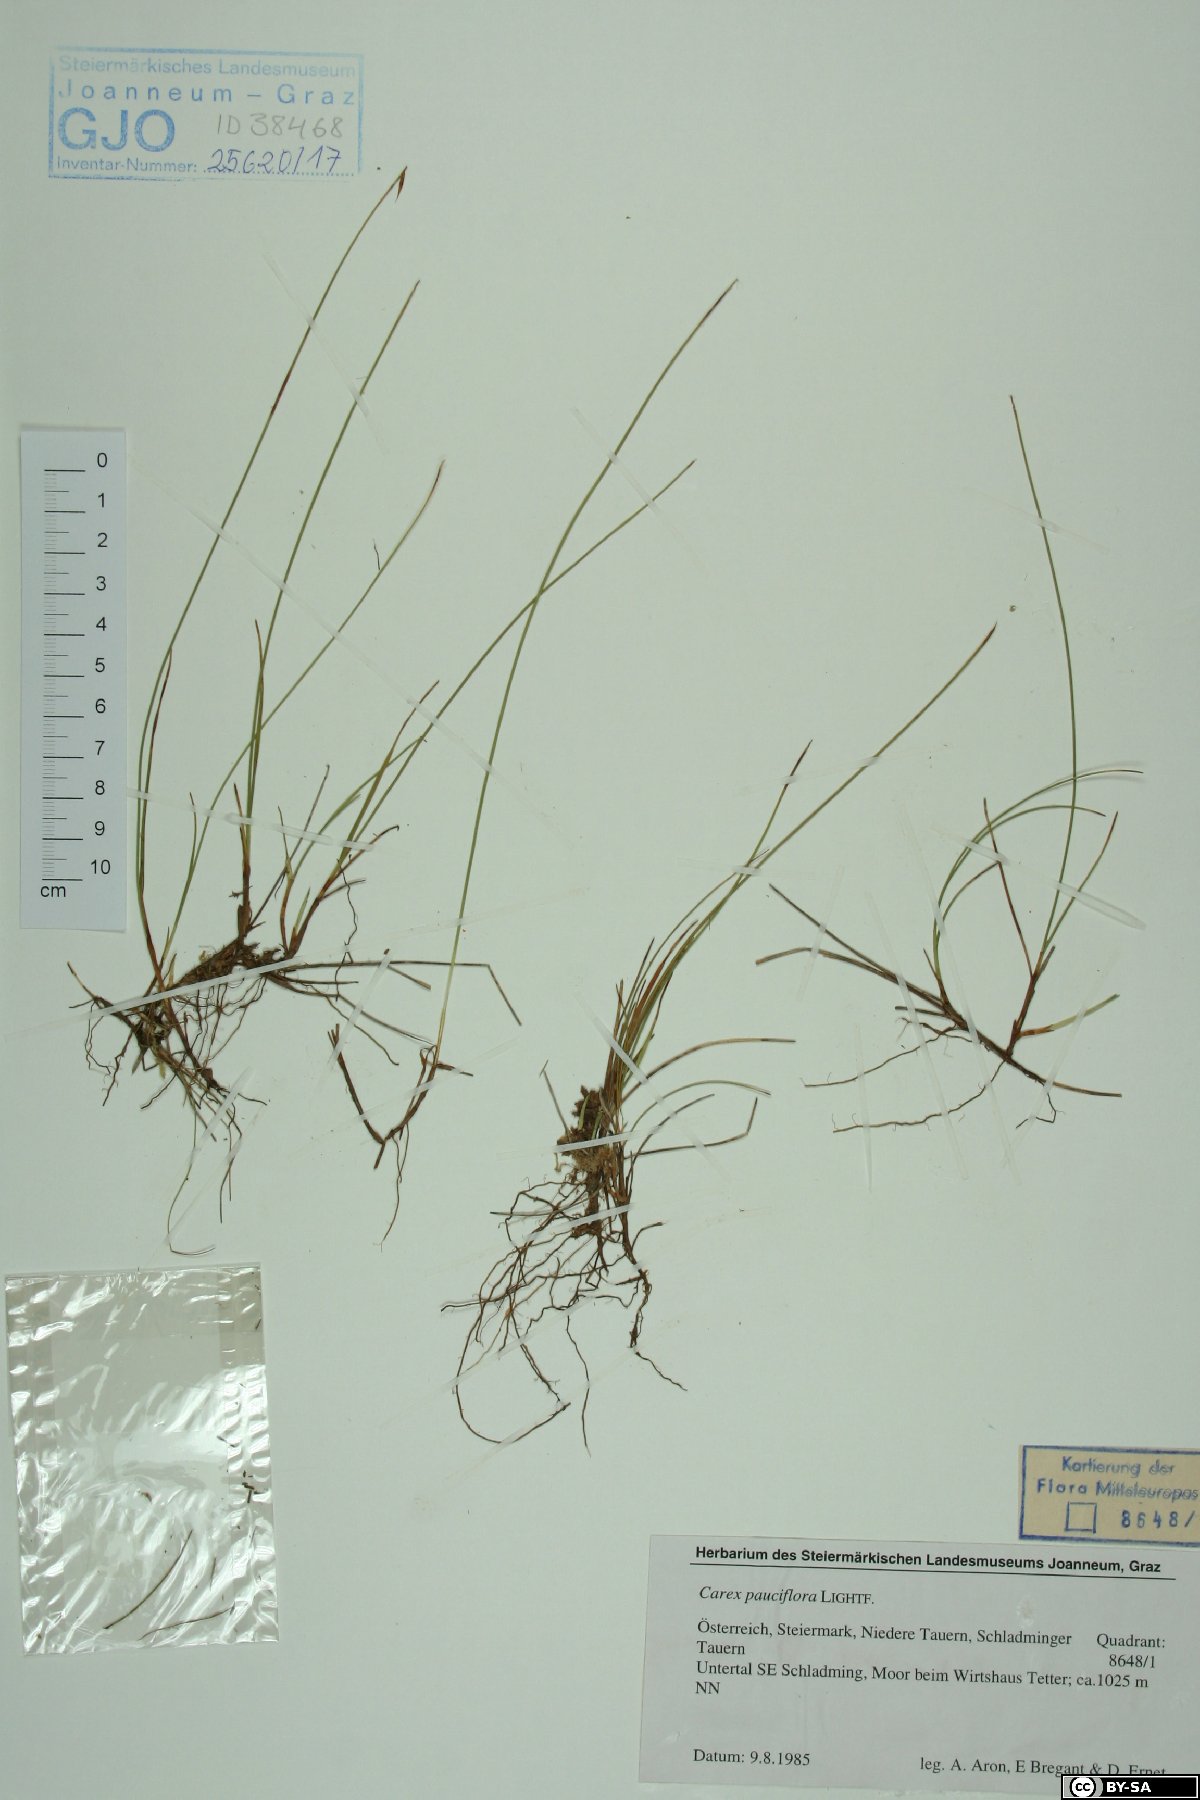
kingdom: Plantae
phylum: Tracheophyta
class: Liliopsida
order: Poales
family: Cyperaceae
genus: Carex
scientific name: Carex pauciflora
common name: Few-flowered sedge
